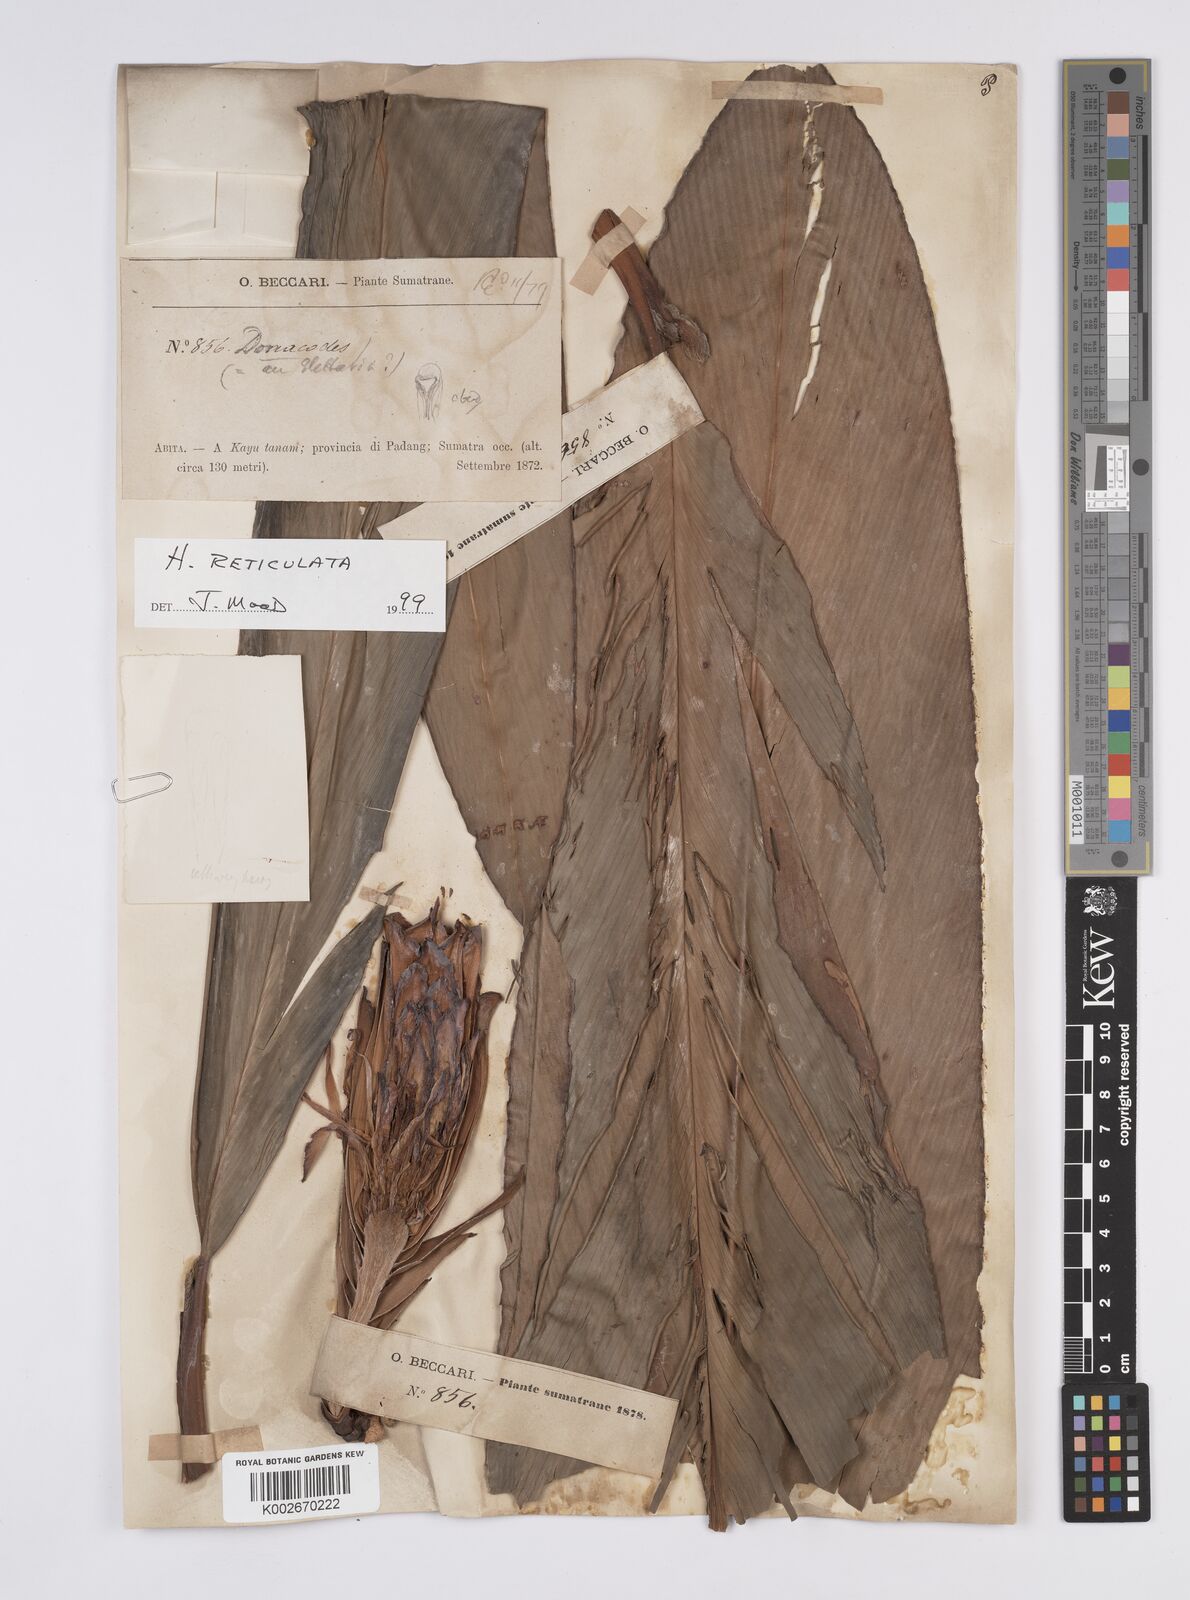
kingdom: Plantae
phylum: Tracheophyta
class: Liliopsida
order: Zingiberales
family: Zingiberaceae
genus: Hornstedtia
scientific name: Hornstedtia reticulata
